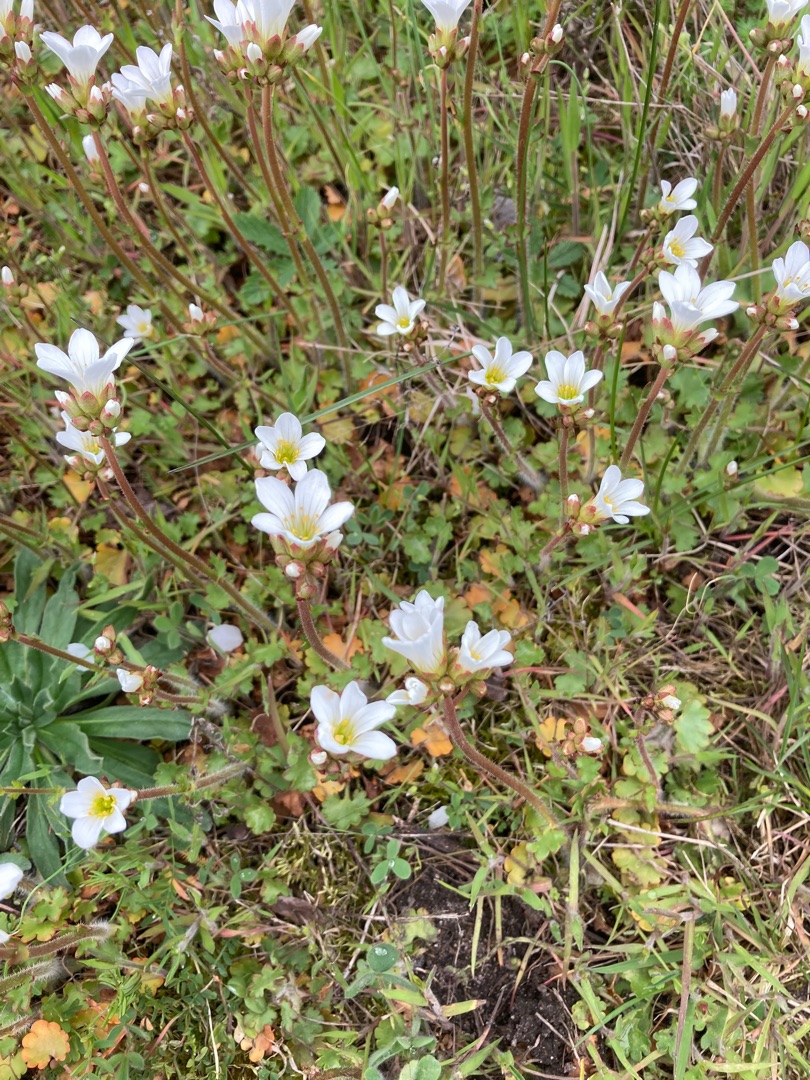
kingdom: Plantae
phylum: Tracheophyta
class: Magnoliopsida
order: Saxifragales
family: Saxifragaceae
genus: Saxifraga
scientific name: Saxifraga granulata
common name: Kornet stenbræk
